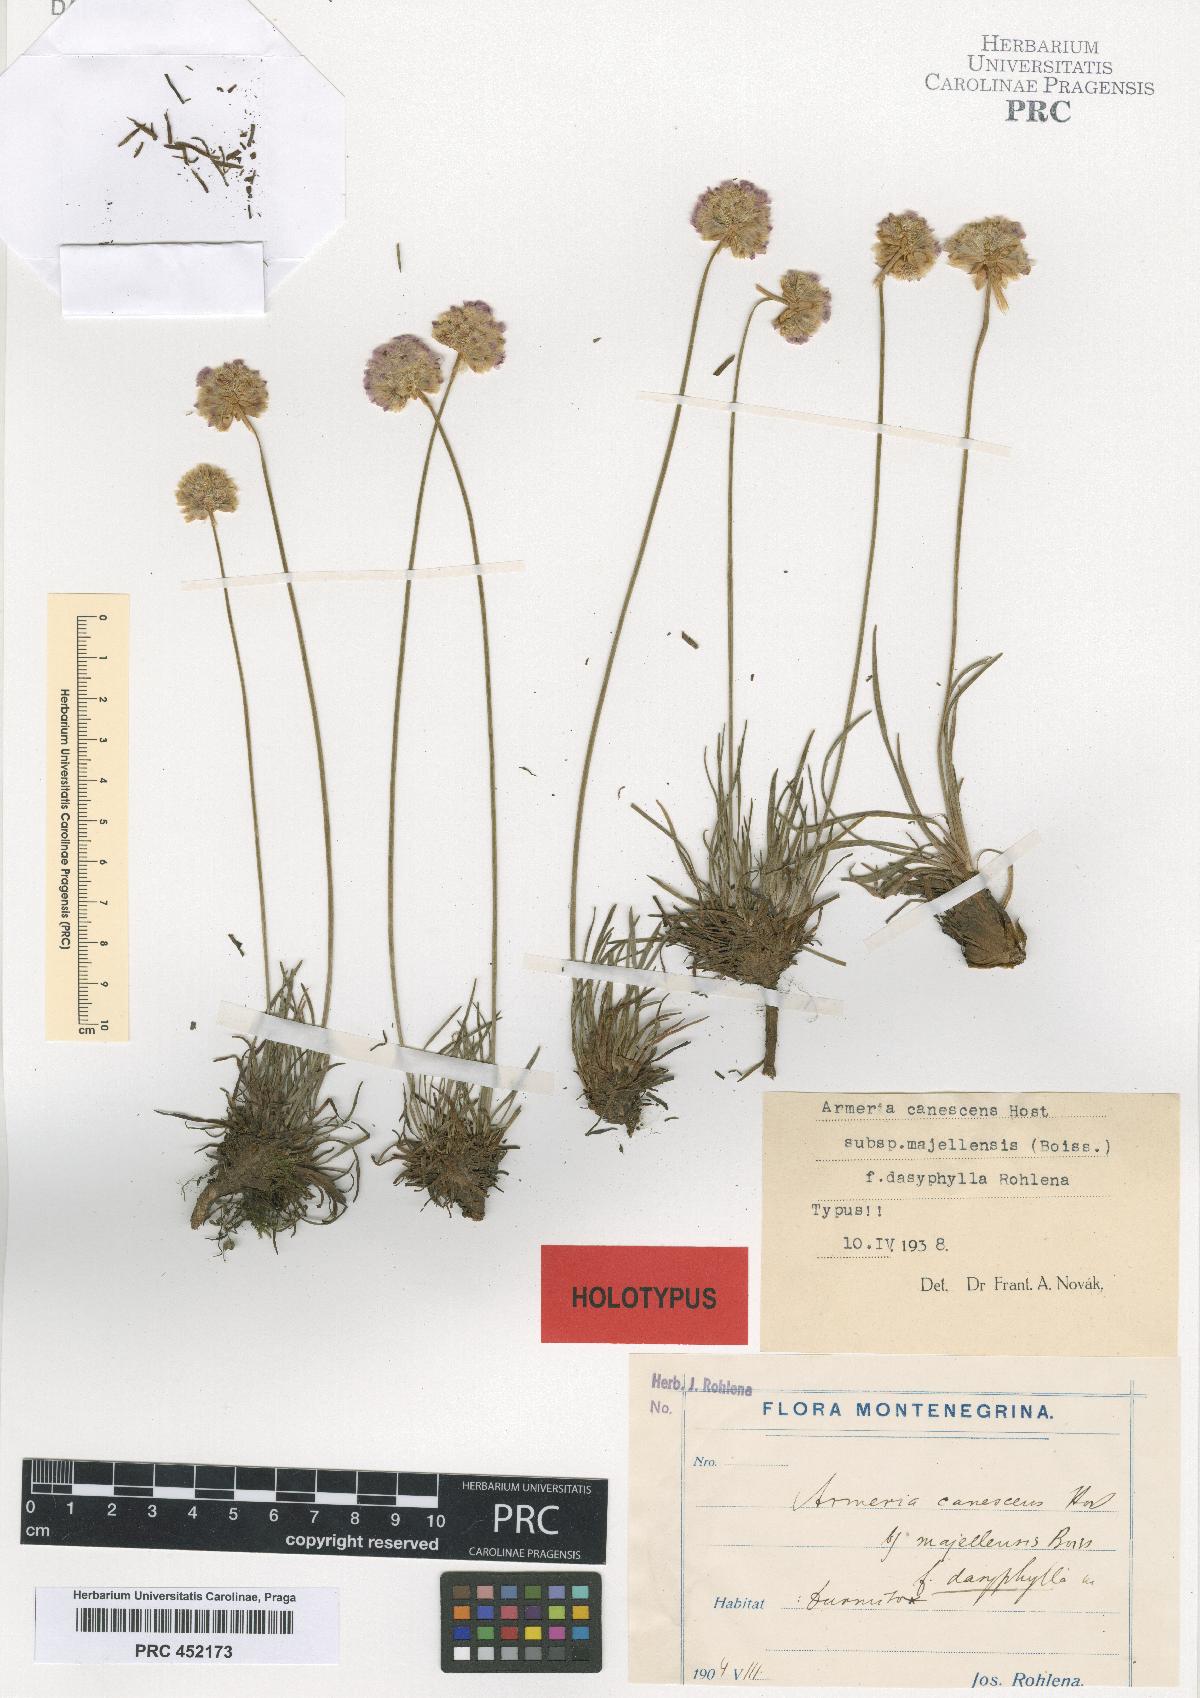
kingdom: Plantae
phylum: Tracheophyta
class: Magnoliopsida
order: Caryophyllales
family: Plumbaginaceae
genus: Armeria
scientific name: Armeria canescens
